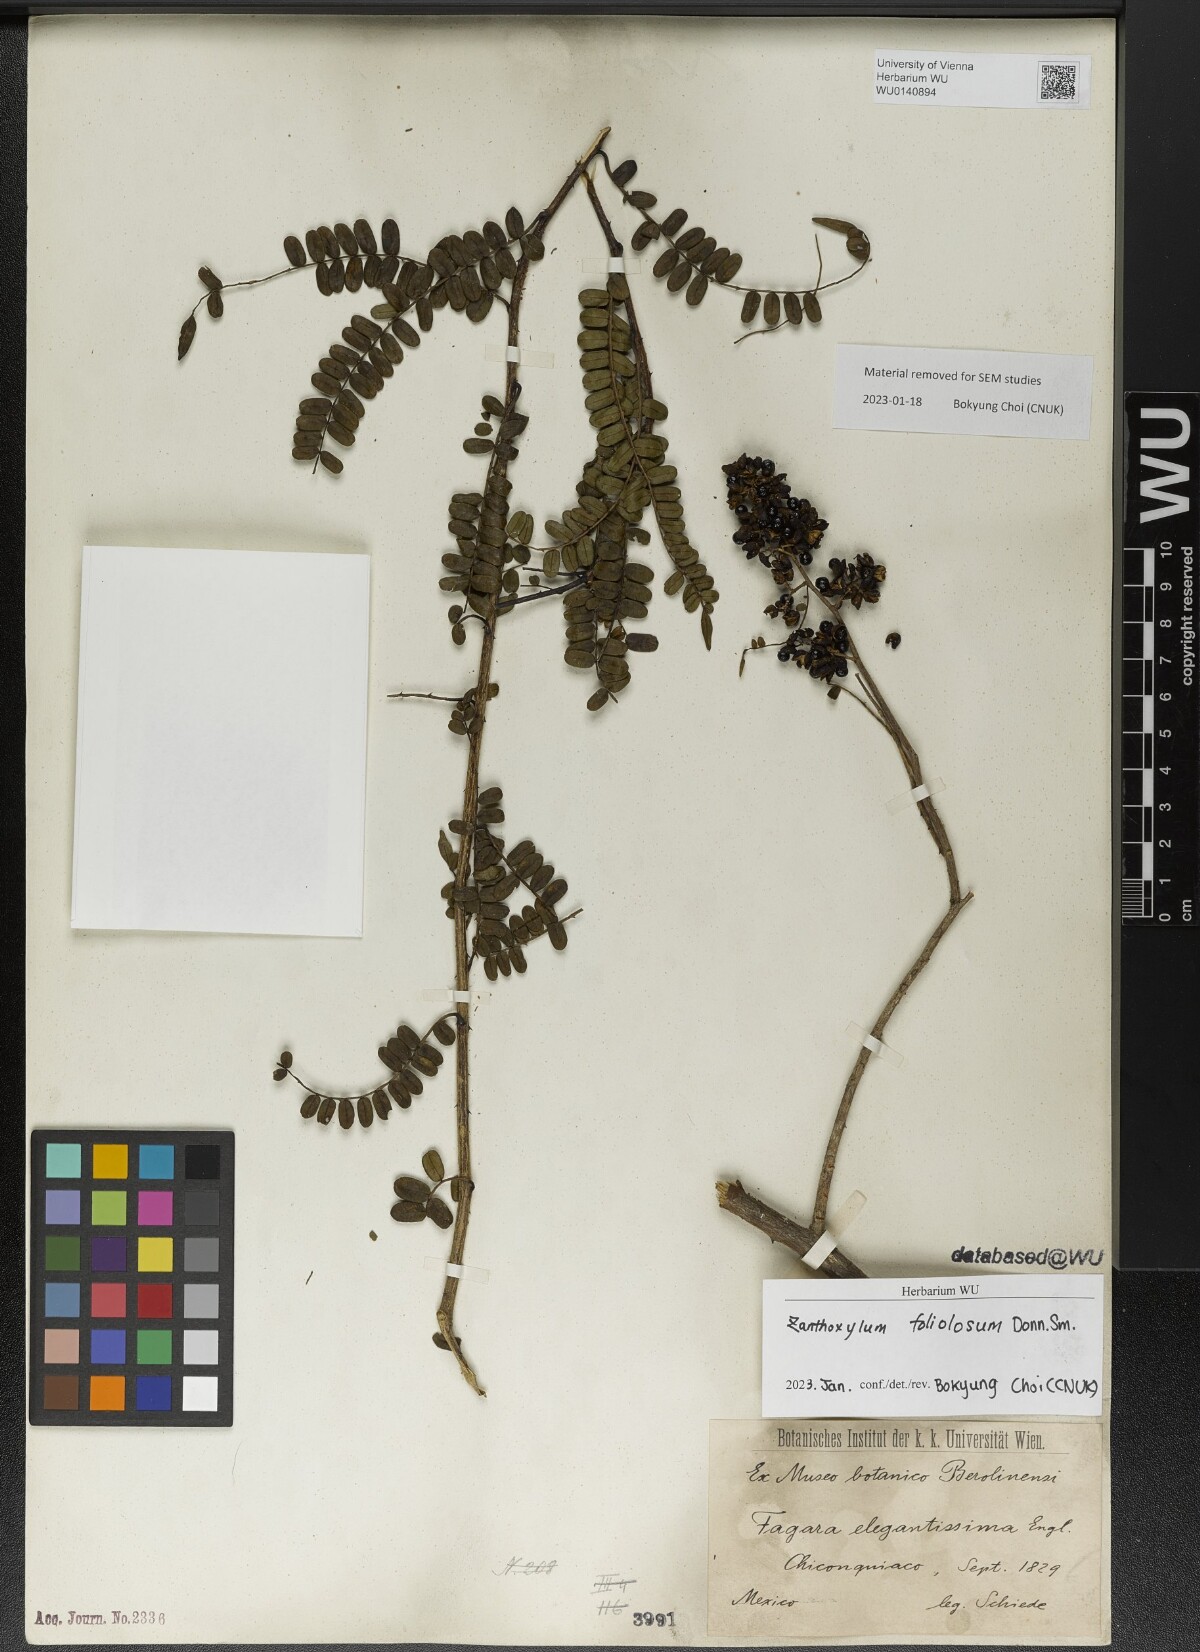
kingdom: Plantae
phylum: Tracheophyta
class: Magnoliopsida
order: Sapindales
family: Rutaceae
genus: Zanthoxylum
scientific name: Zanthoxylum foliolosum
